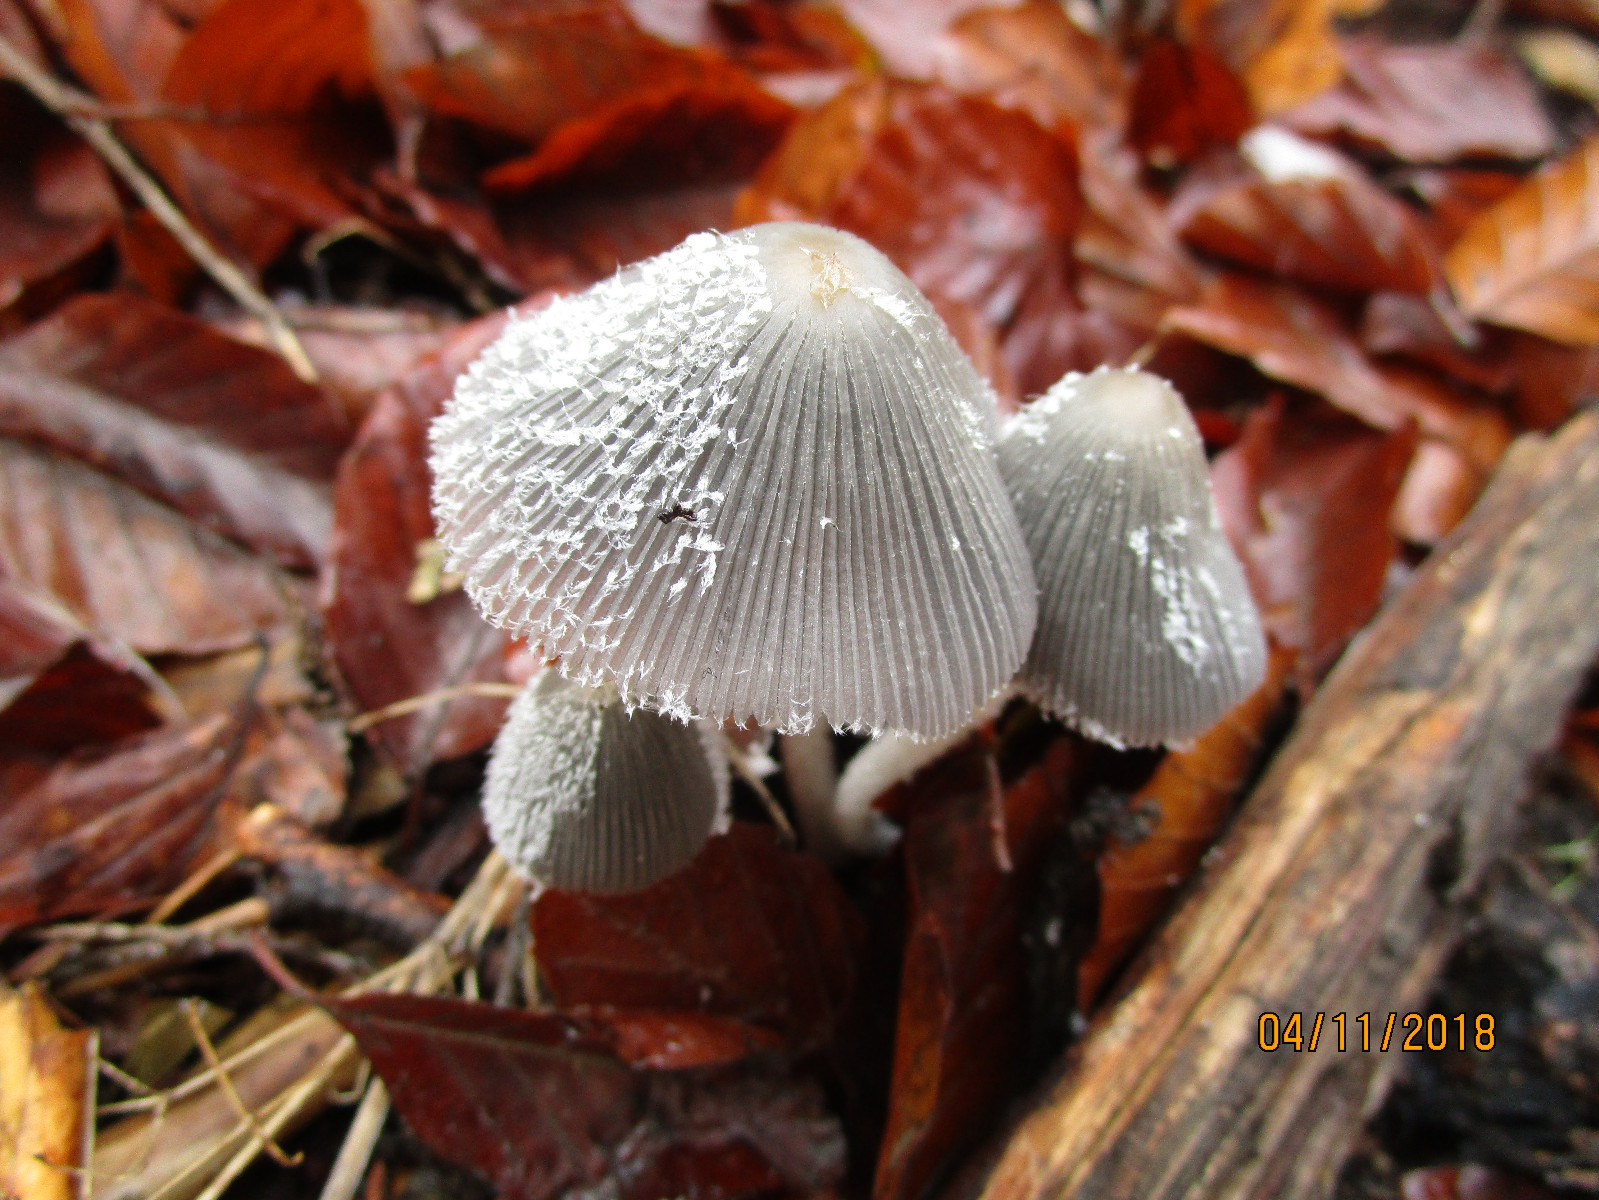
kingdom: Fungi
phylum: Basidiomycota
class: Agaricomycetes
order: Agaricales
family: Psathyrellaceae
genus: Coprinopsis
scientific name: Coprinopsis lagopus
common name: dunstokket blækhat
